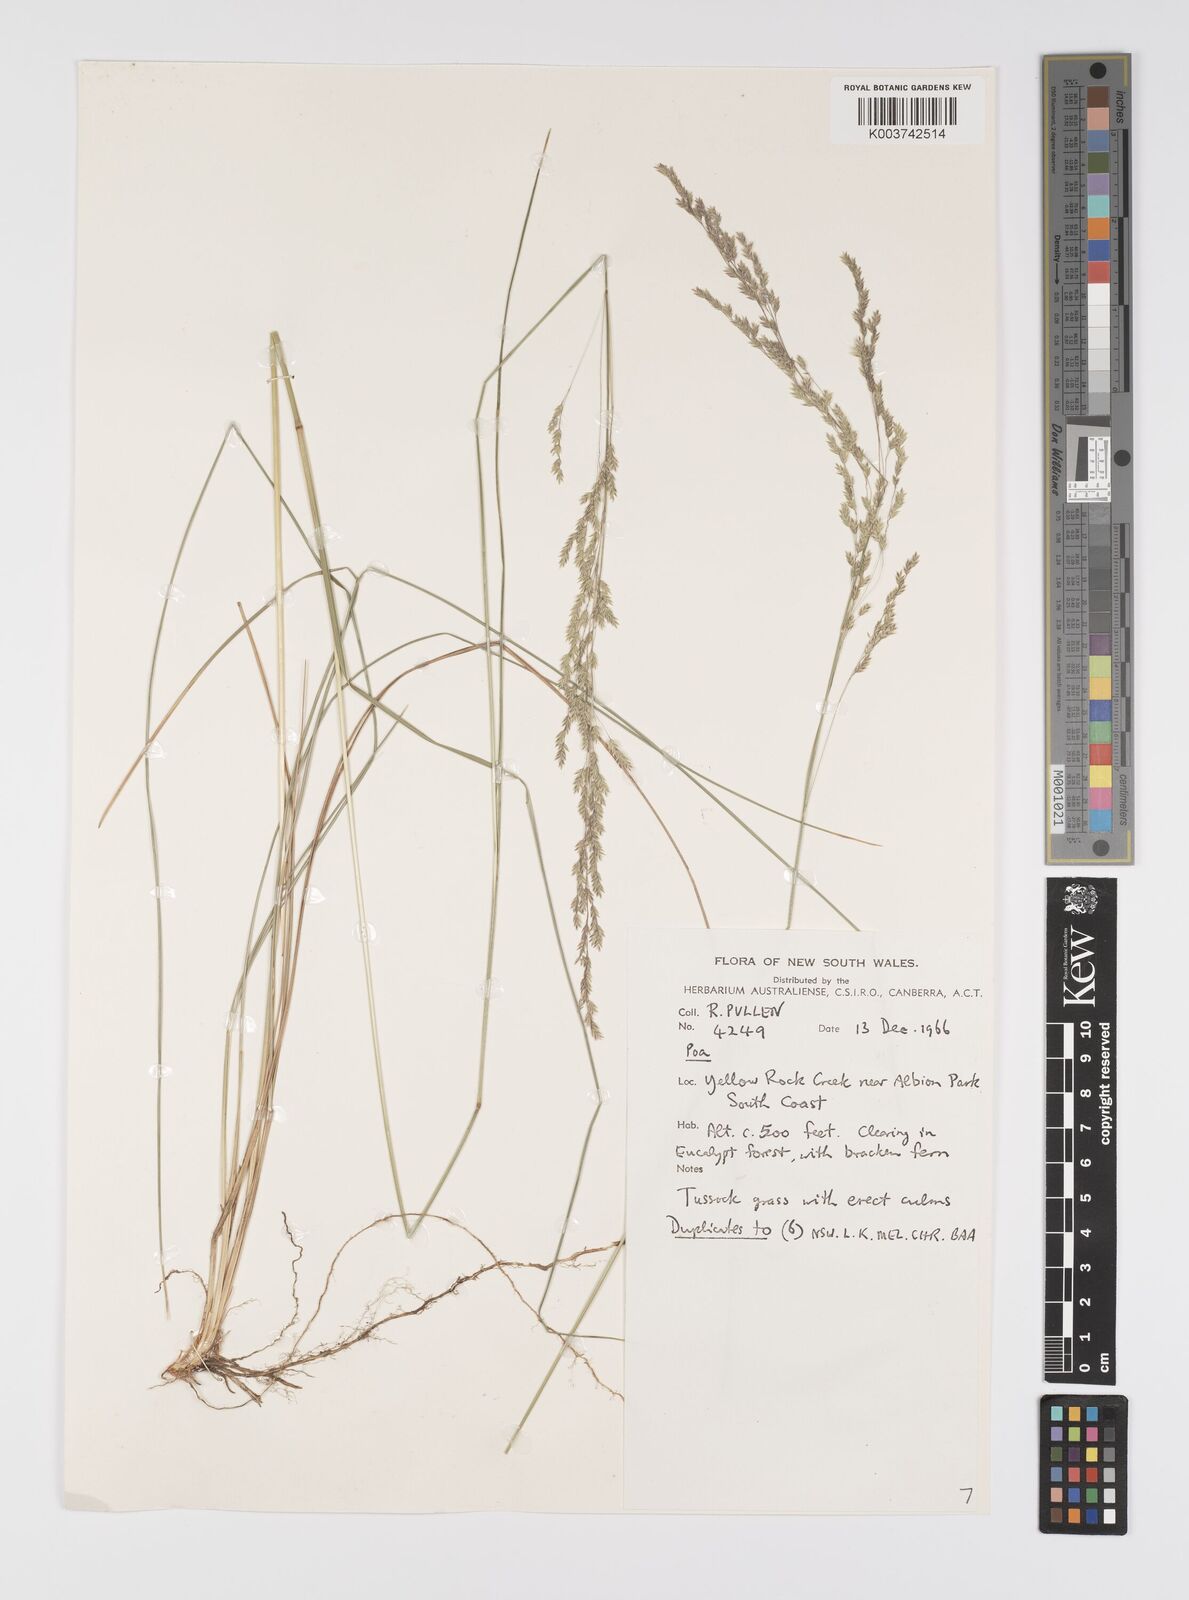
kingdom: Plantae
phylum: Tracheophyta
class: Liliopsida
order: Poales
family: Poaceae
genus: Poa
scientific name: Poa
